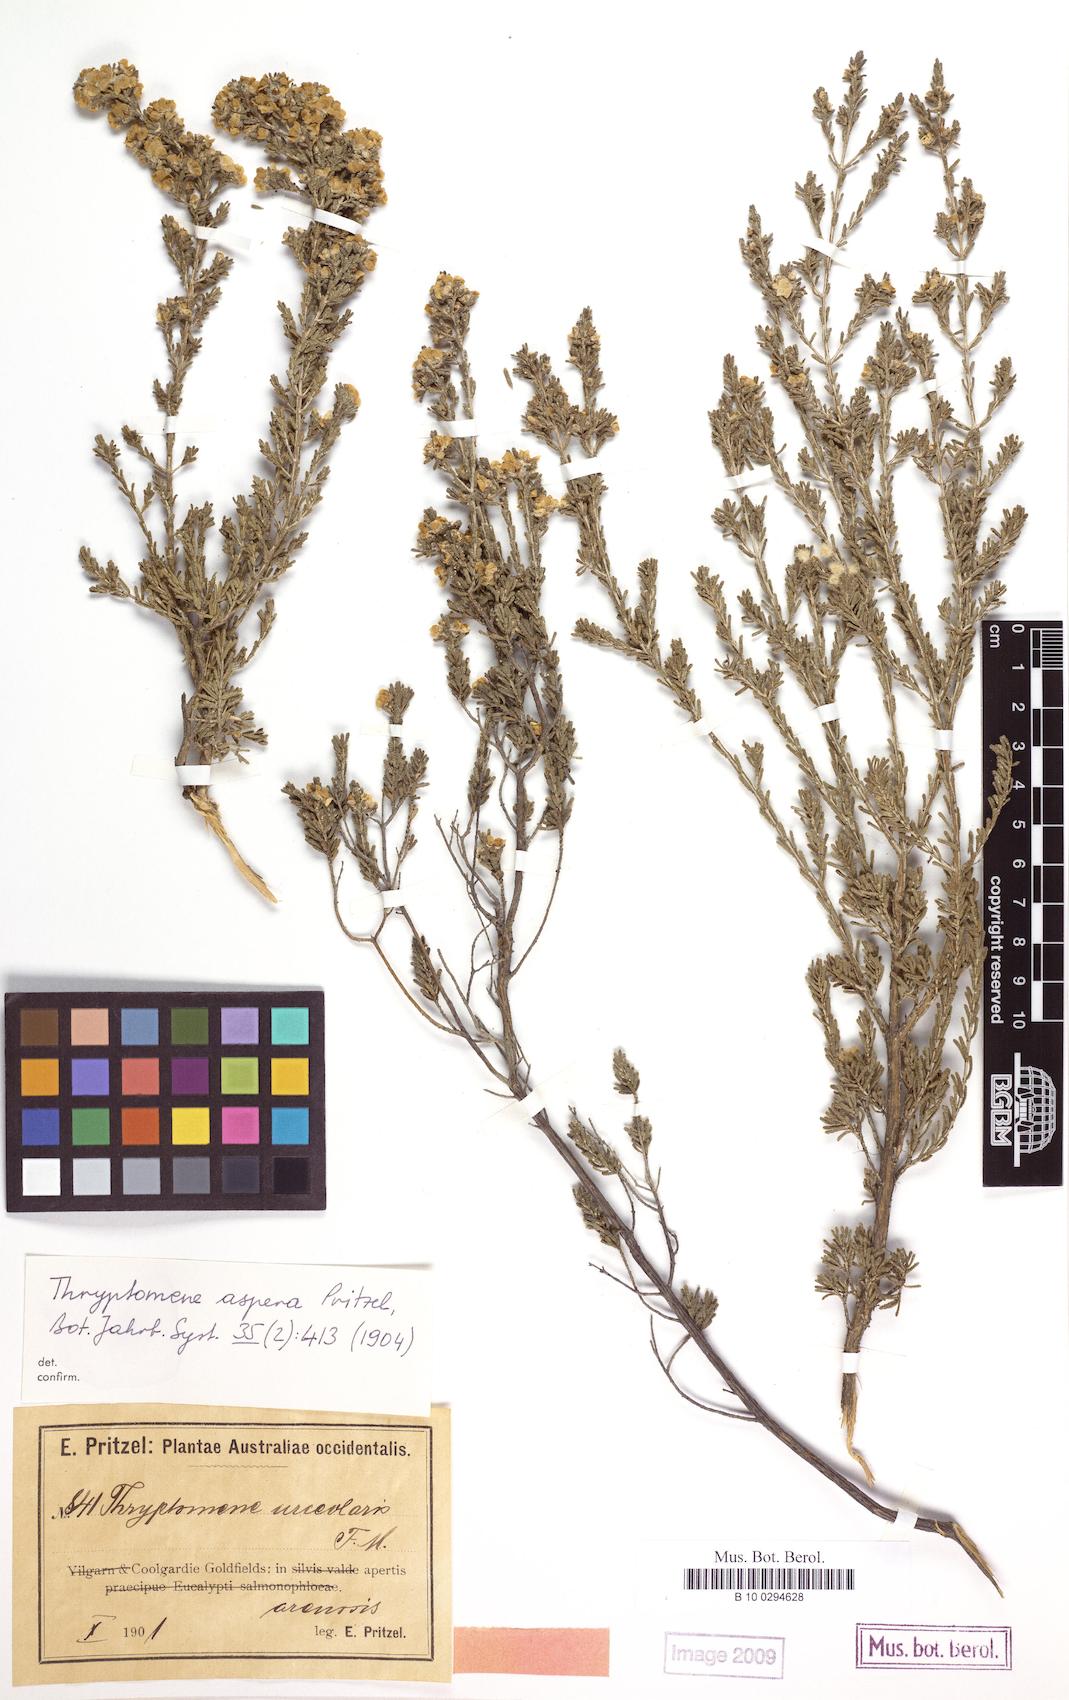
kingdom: Plantae
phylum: Tracheophyta
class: Magnoliopsida
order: Myrtales
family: Myrtaceae
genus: Aluta
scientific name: Aluta aspera
